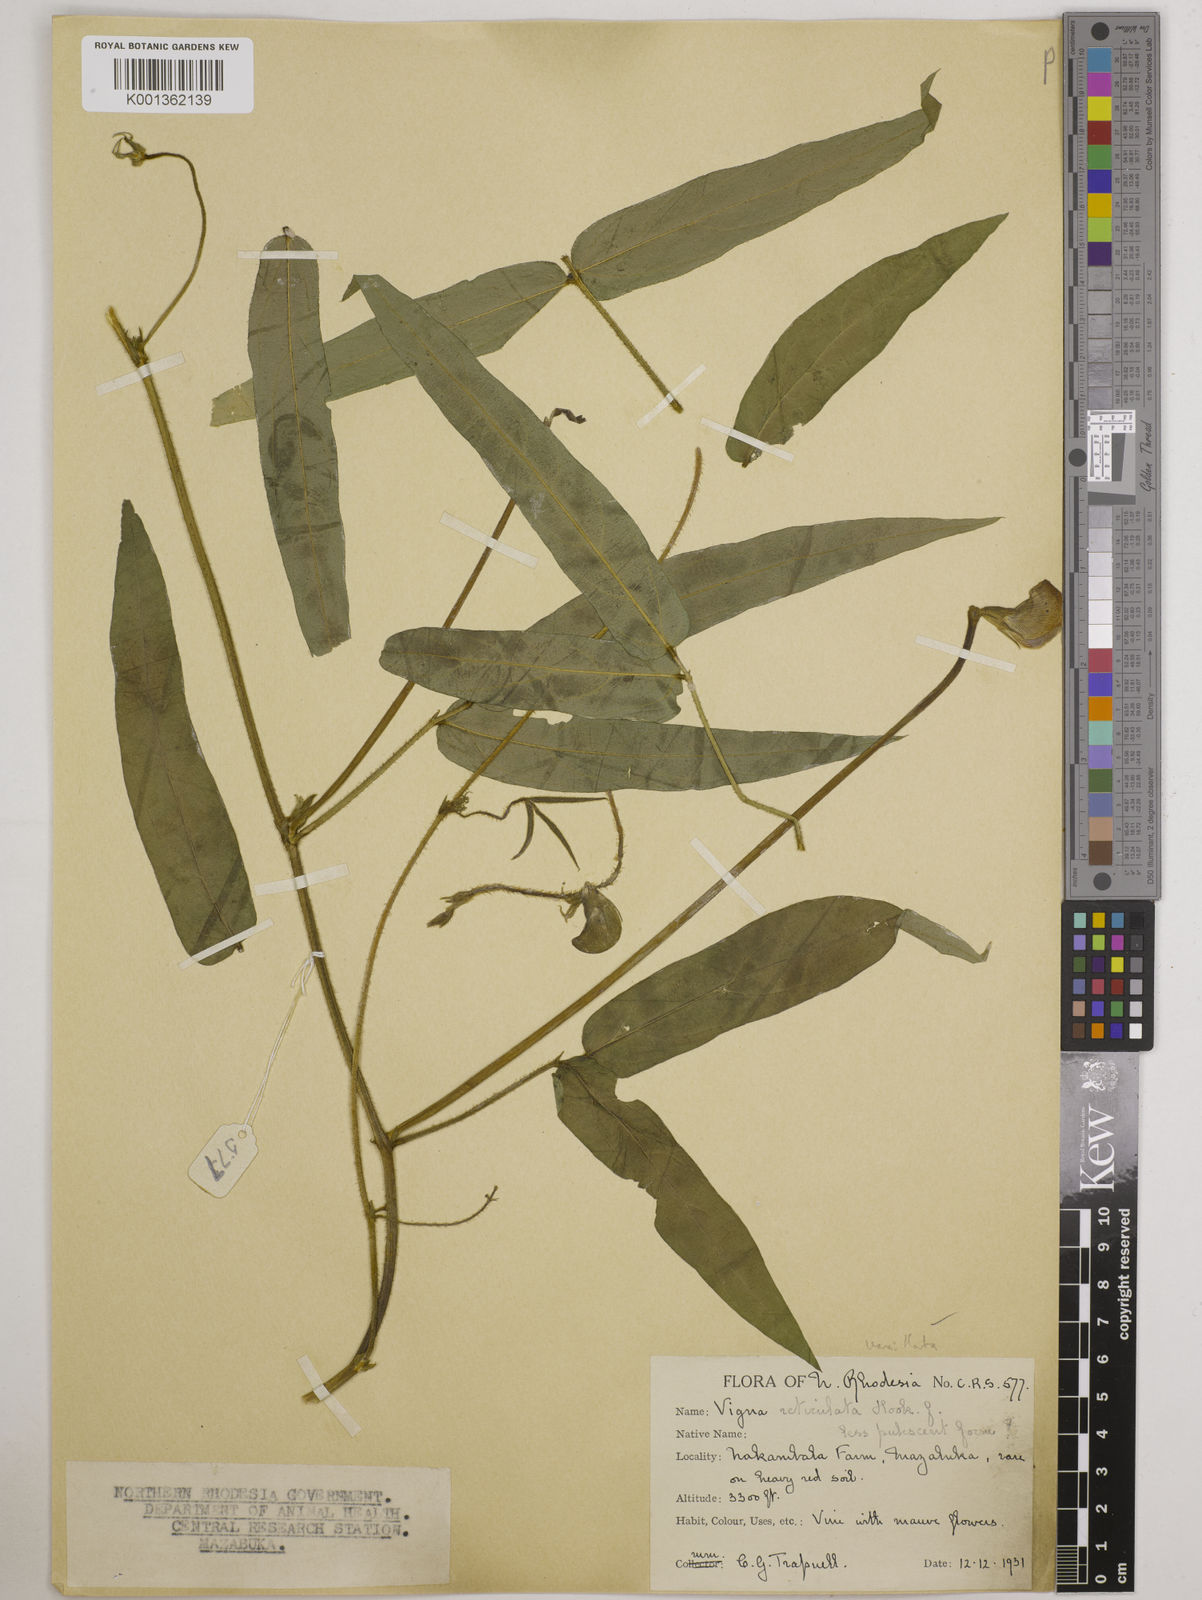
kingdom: Plantae
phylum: Tracheophyta
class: Magnoliopsida
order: Fabales
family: Fabaceae
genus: Vigna
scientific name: Vigna vexillata
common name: Zombi pea
